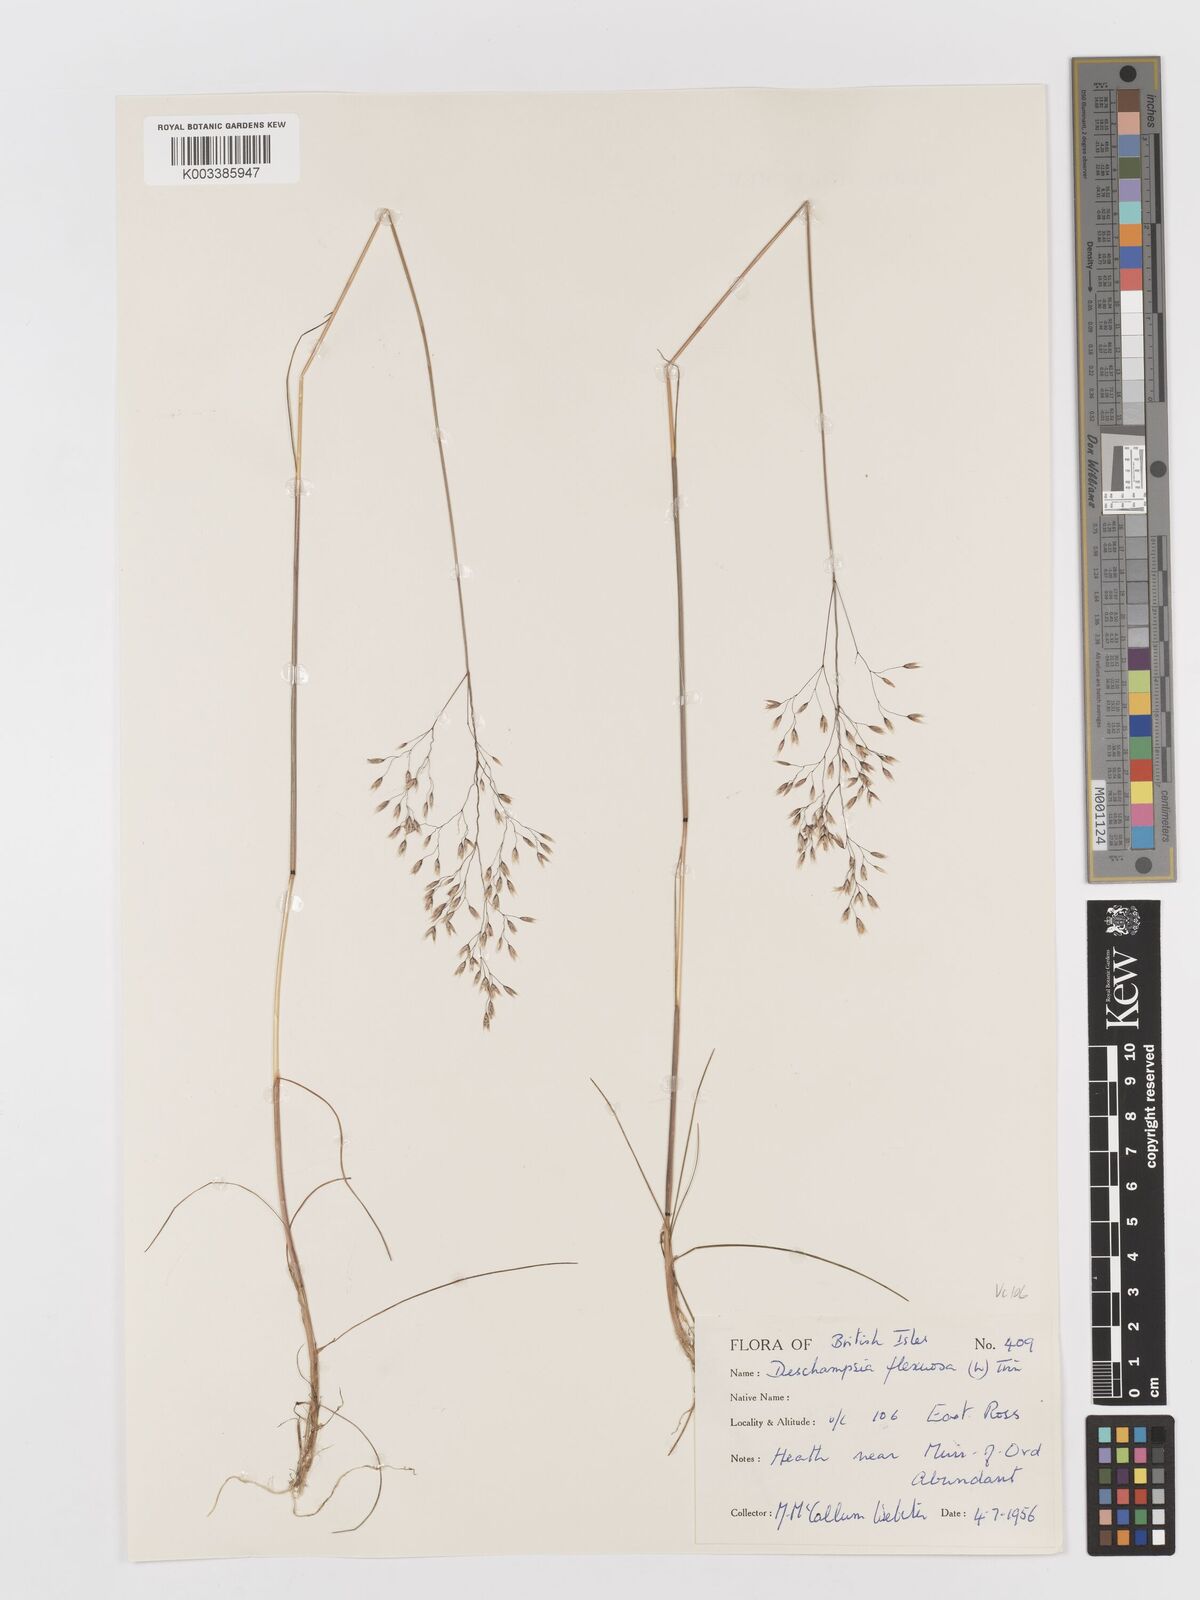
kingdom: Plantae
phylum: Tracheophyta
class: Liliopsida
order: Poales
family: Poaceae
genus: Avenella
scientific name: Avenella flexuosa
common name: Wavy hairgrass
